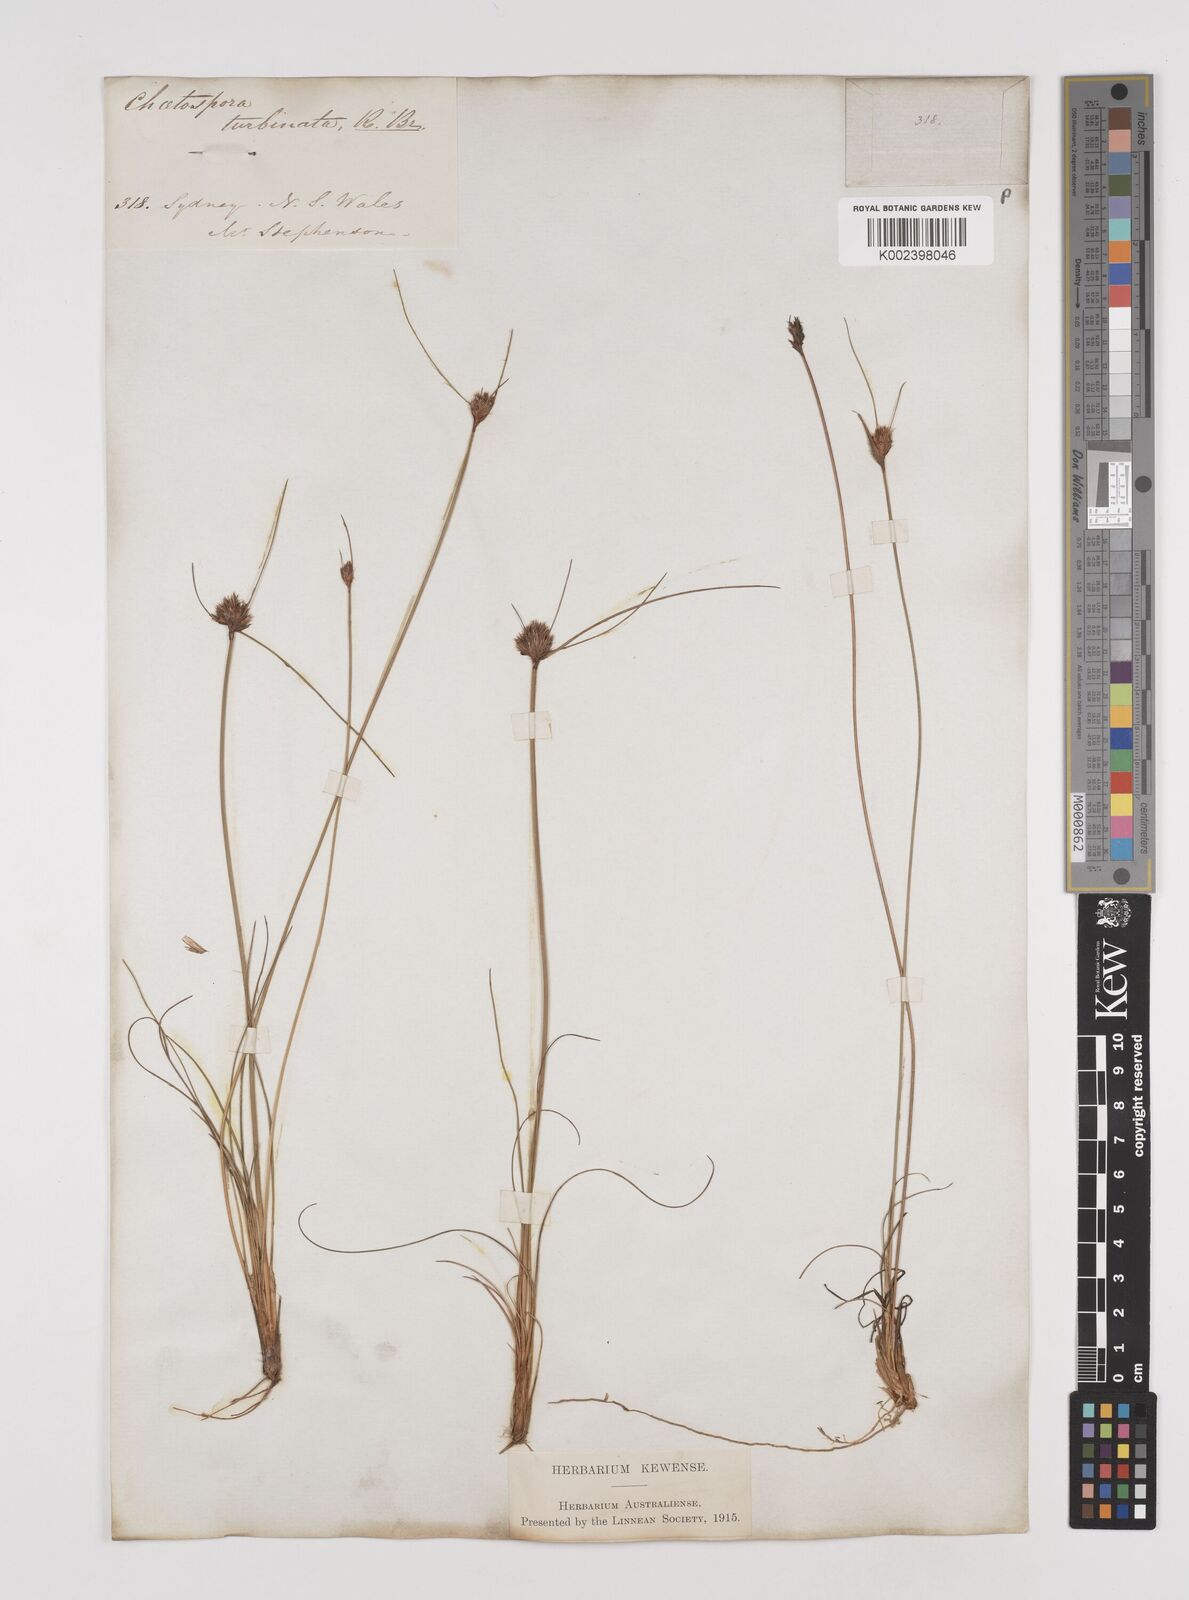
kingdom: Plantae
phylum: Tracheophyta
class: Liliopsida
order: Poales
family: Cyperaceae
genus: Schoenus
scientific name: Schoenus turbinatus
